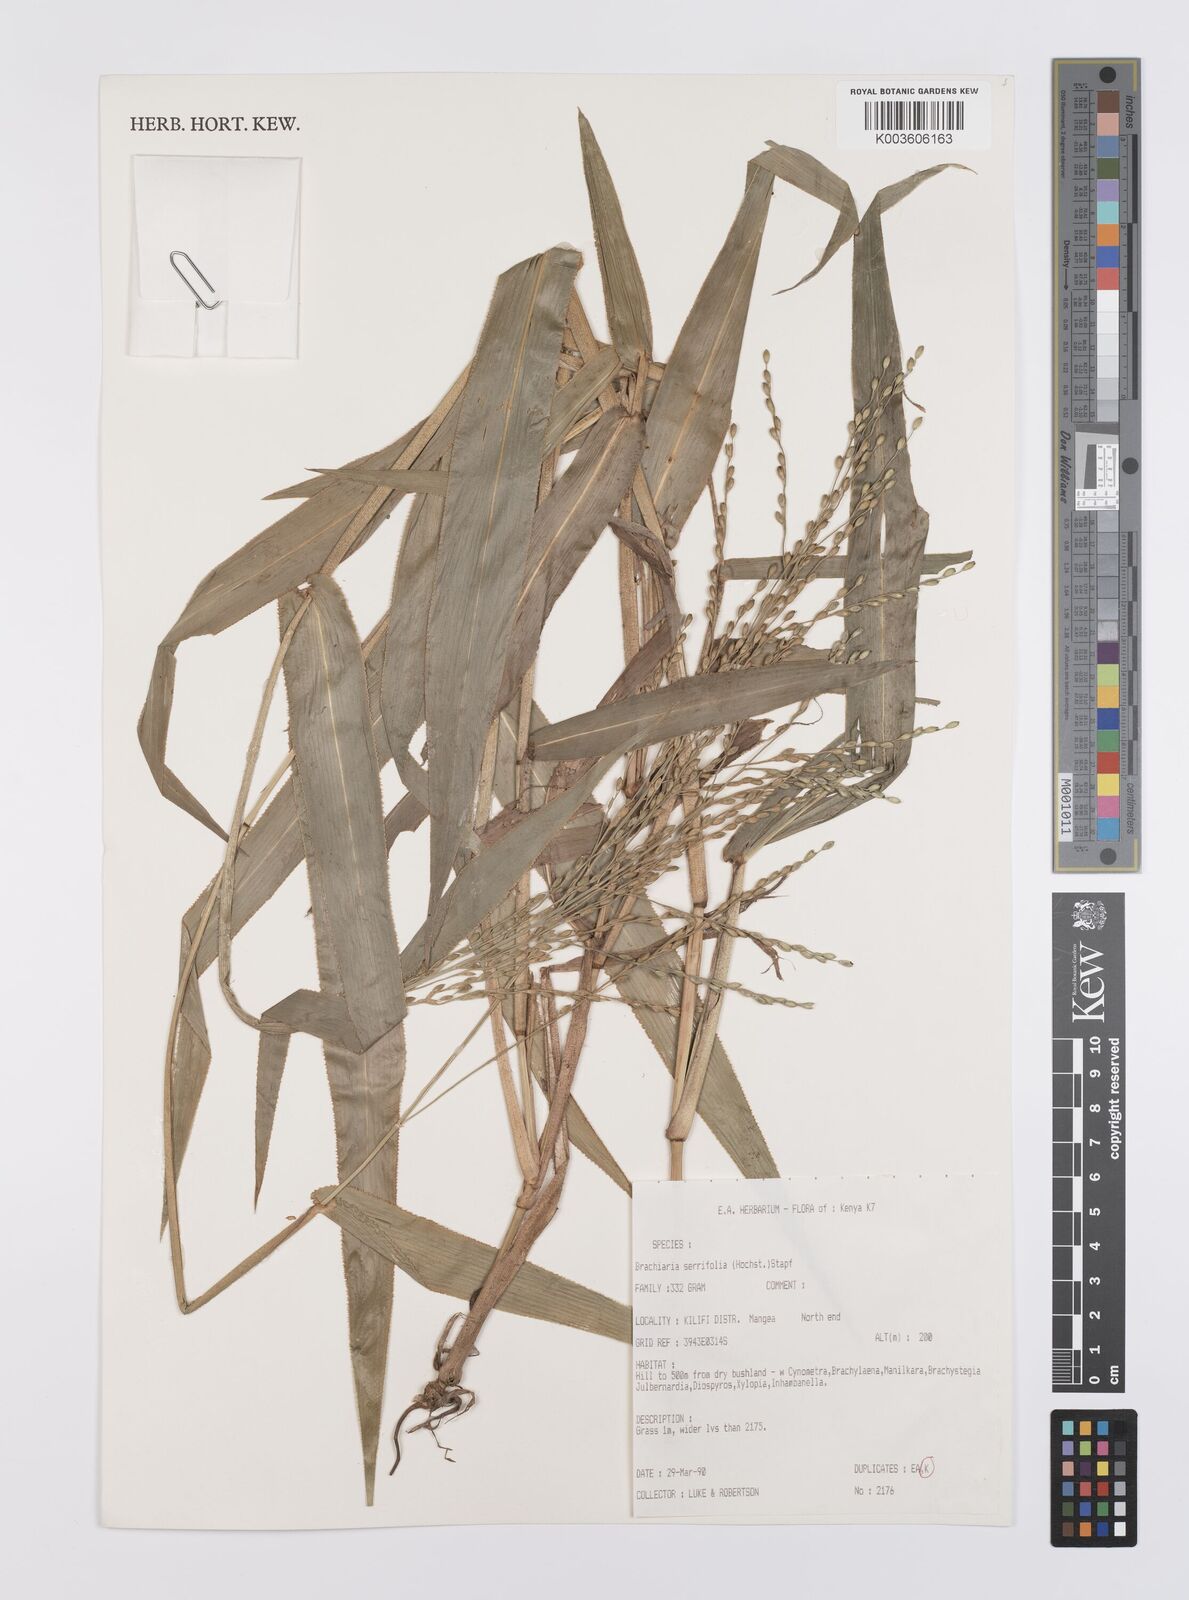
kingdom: Plantae
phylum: Tracheophyta
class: Liliopsida
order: Poales
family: Poaceae
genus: Urochloa
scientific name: Urochloa serrifolia
